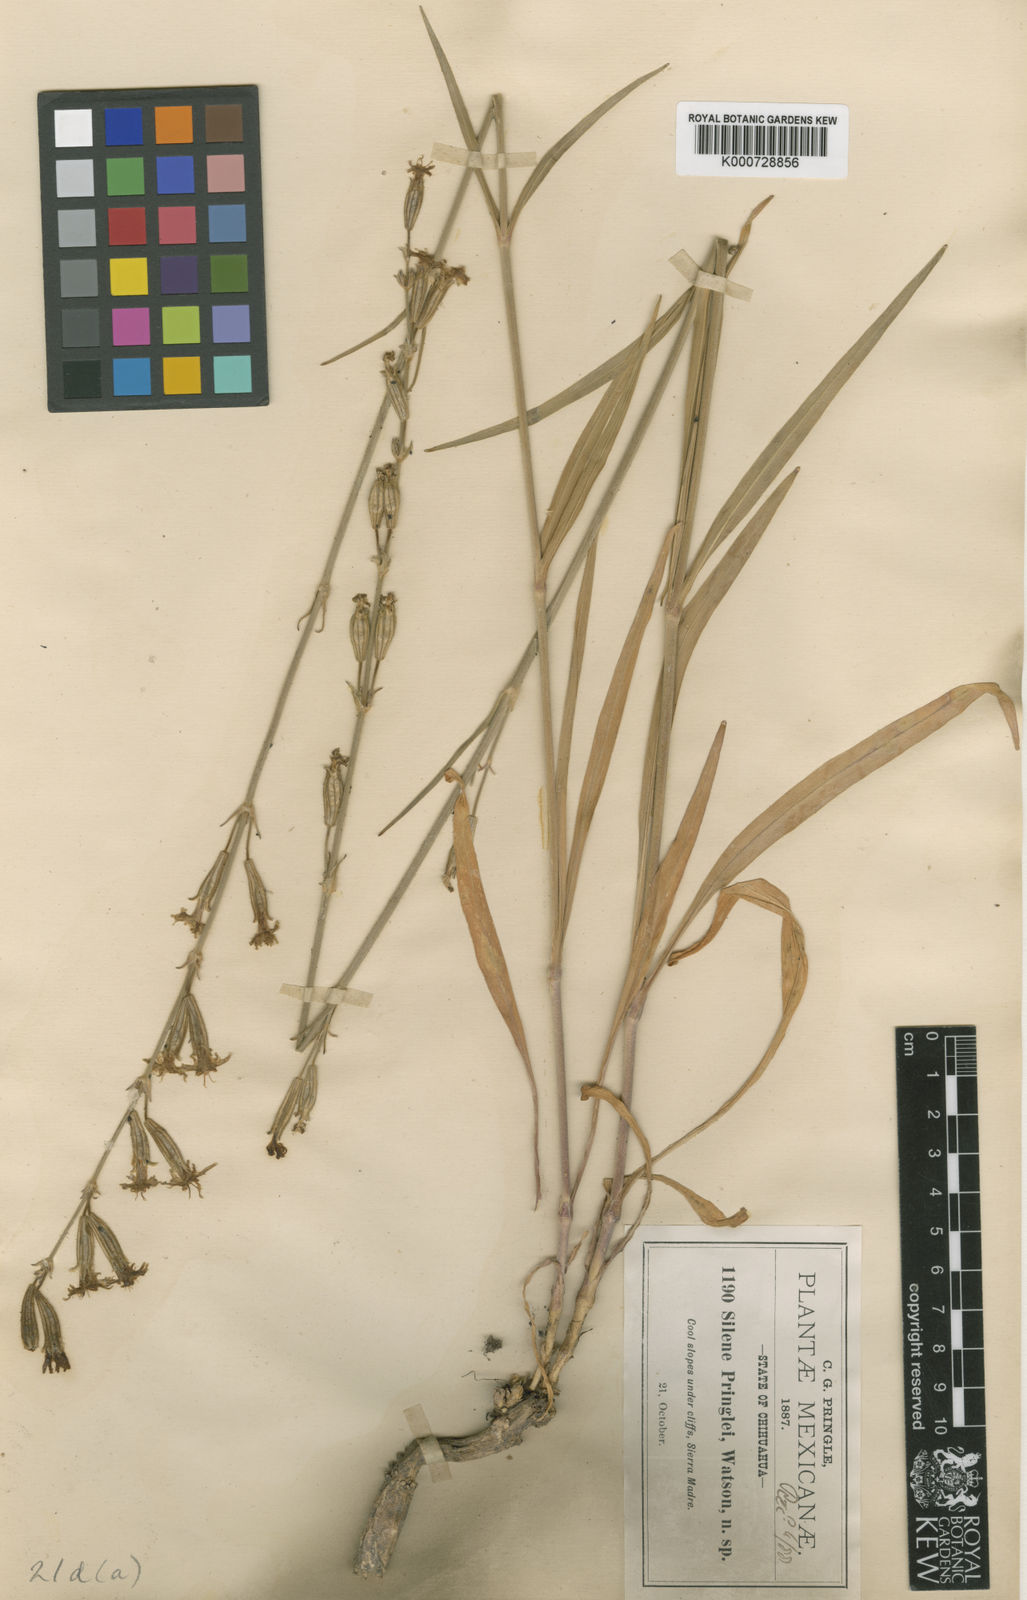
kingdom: Plantae
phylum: Tracheophyta
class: Magnoliopsida
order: Caryophyllales
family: Caryophyllaceae
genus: Silene
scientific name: Silene scouleri
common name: Scouler's campion
